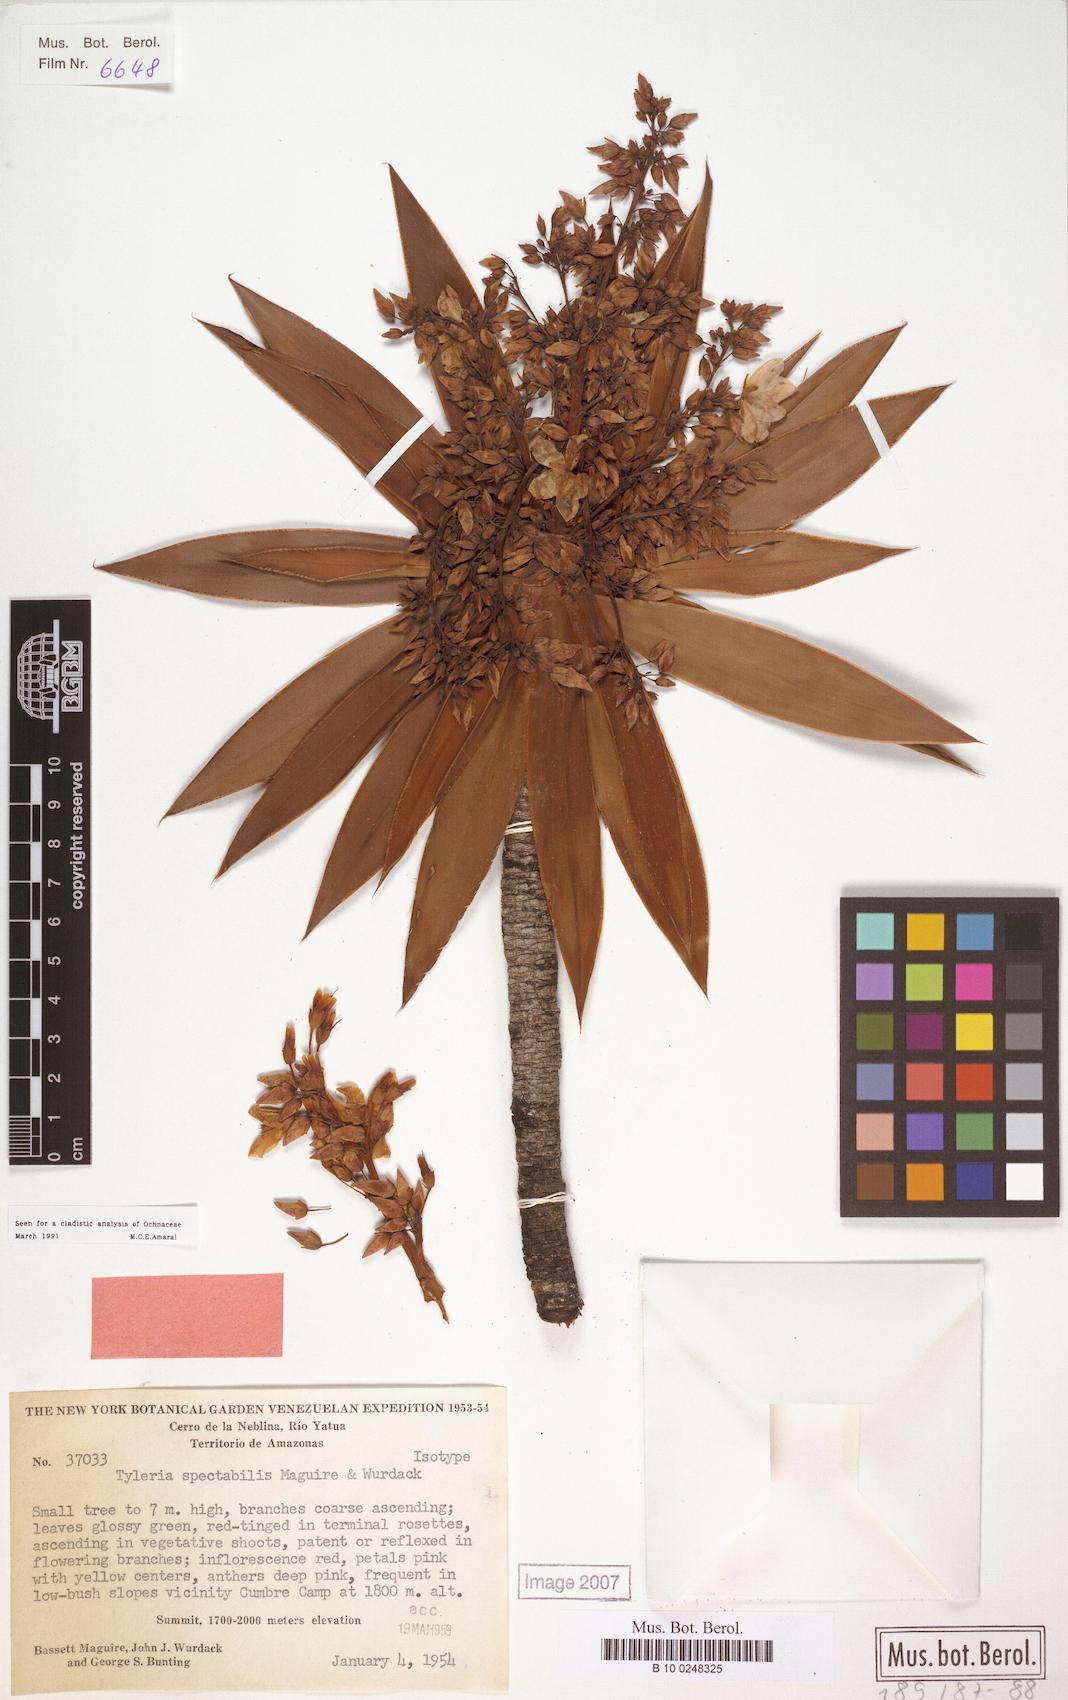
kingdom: Plantae
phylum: Tracheophyta
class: Magnoliopsida
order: Malpighiales
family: Ochnaceae
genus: Tyleria
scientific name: Tyleria spectabilis
